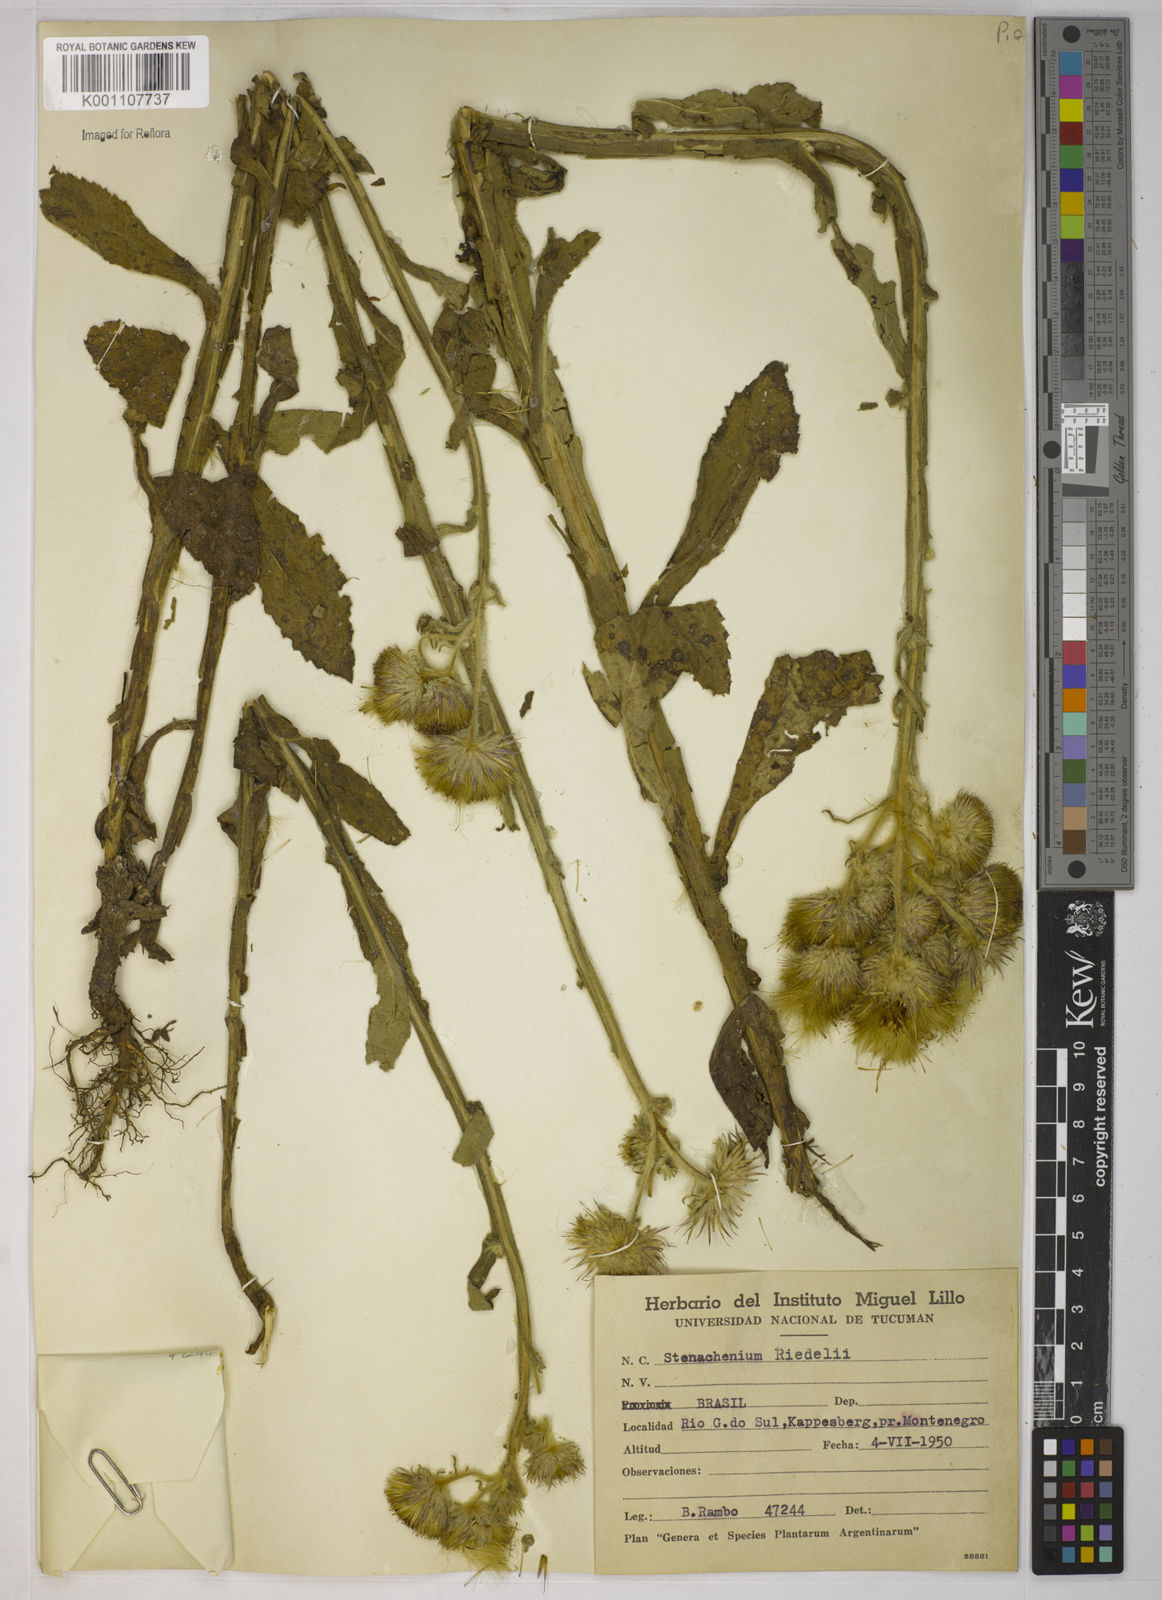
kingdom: Plantae
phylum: Tracheophyta
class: Magnoliopsida
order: Asterales
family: Asteraceae
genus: Stenachaenium
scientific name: Stenachaenium riedelii
